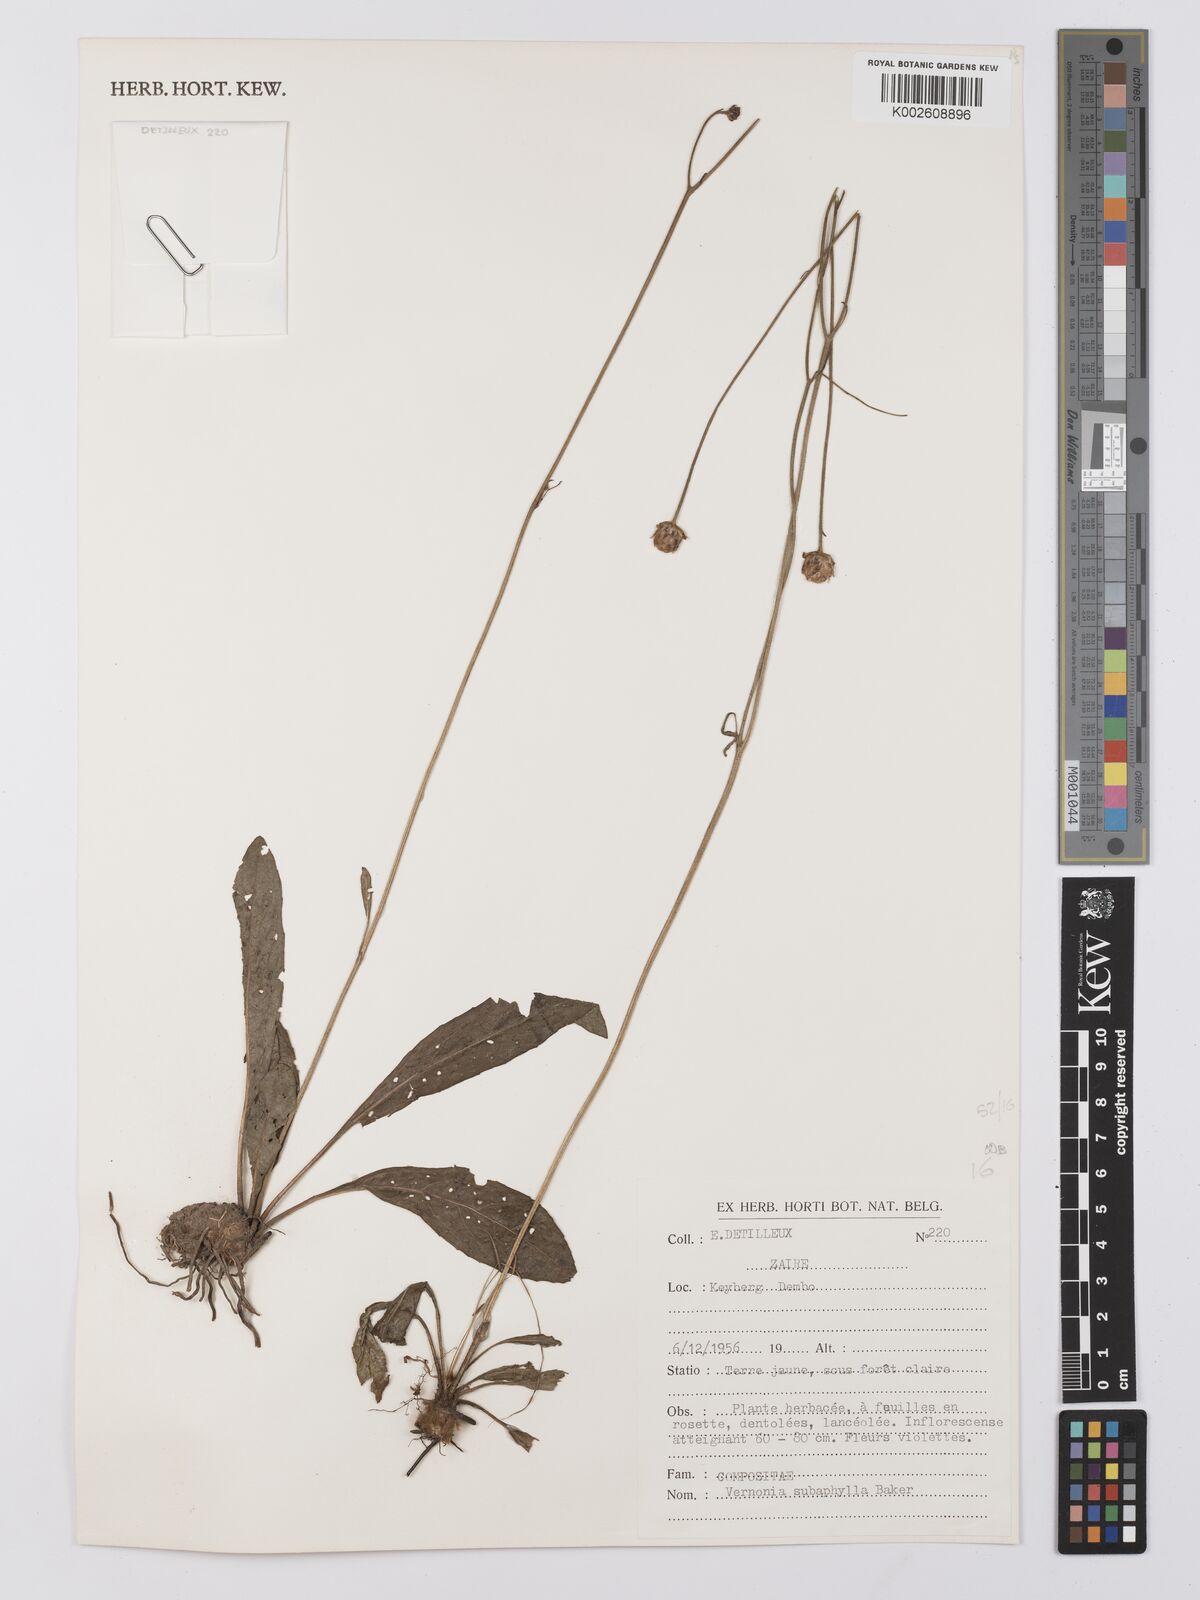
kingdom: Plantae
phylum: Tracheophyta
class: Magnoliopsida
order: Asterales
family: Asteraceae
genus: Vernonella
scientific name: Vernonella subaphylla
